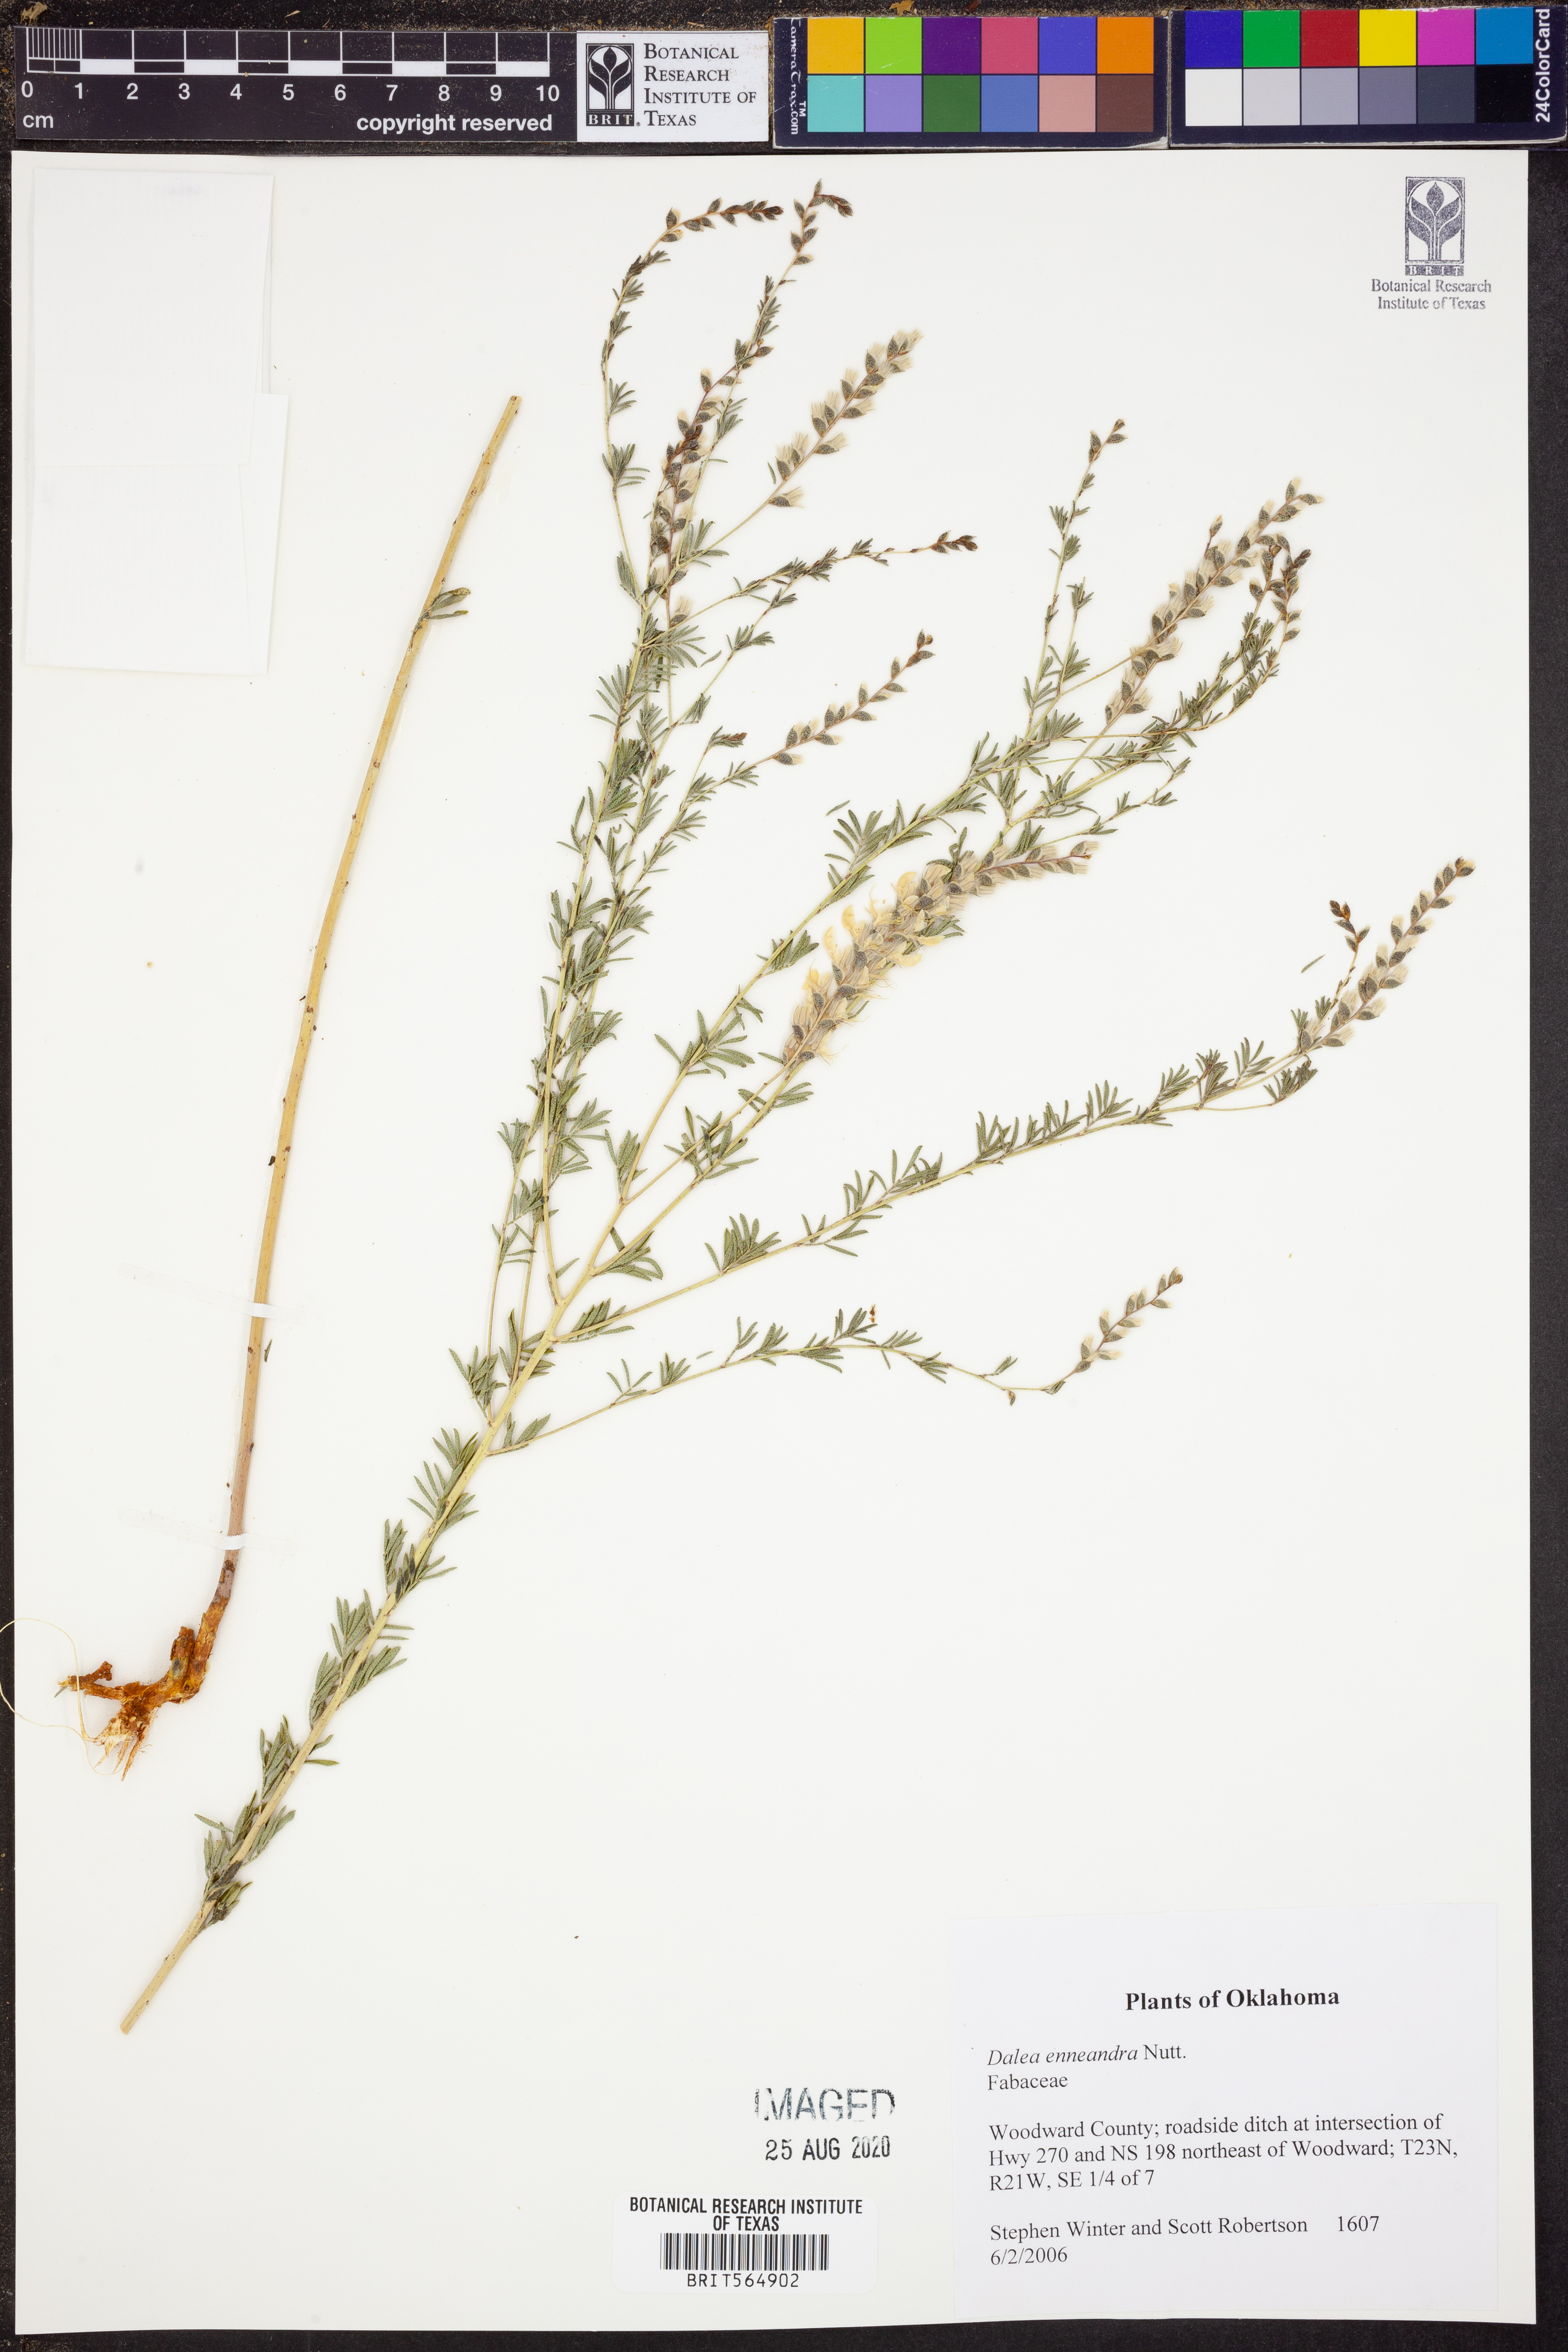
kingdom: Plantae
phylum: Tracheophyta
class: Magnoliopsida
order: Fabales
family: Fabaceae
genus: Dalea
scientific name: Dalea enneandra
